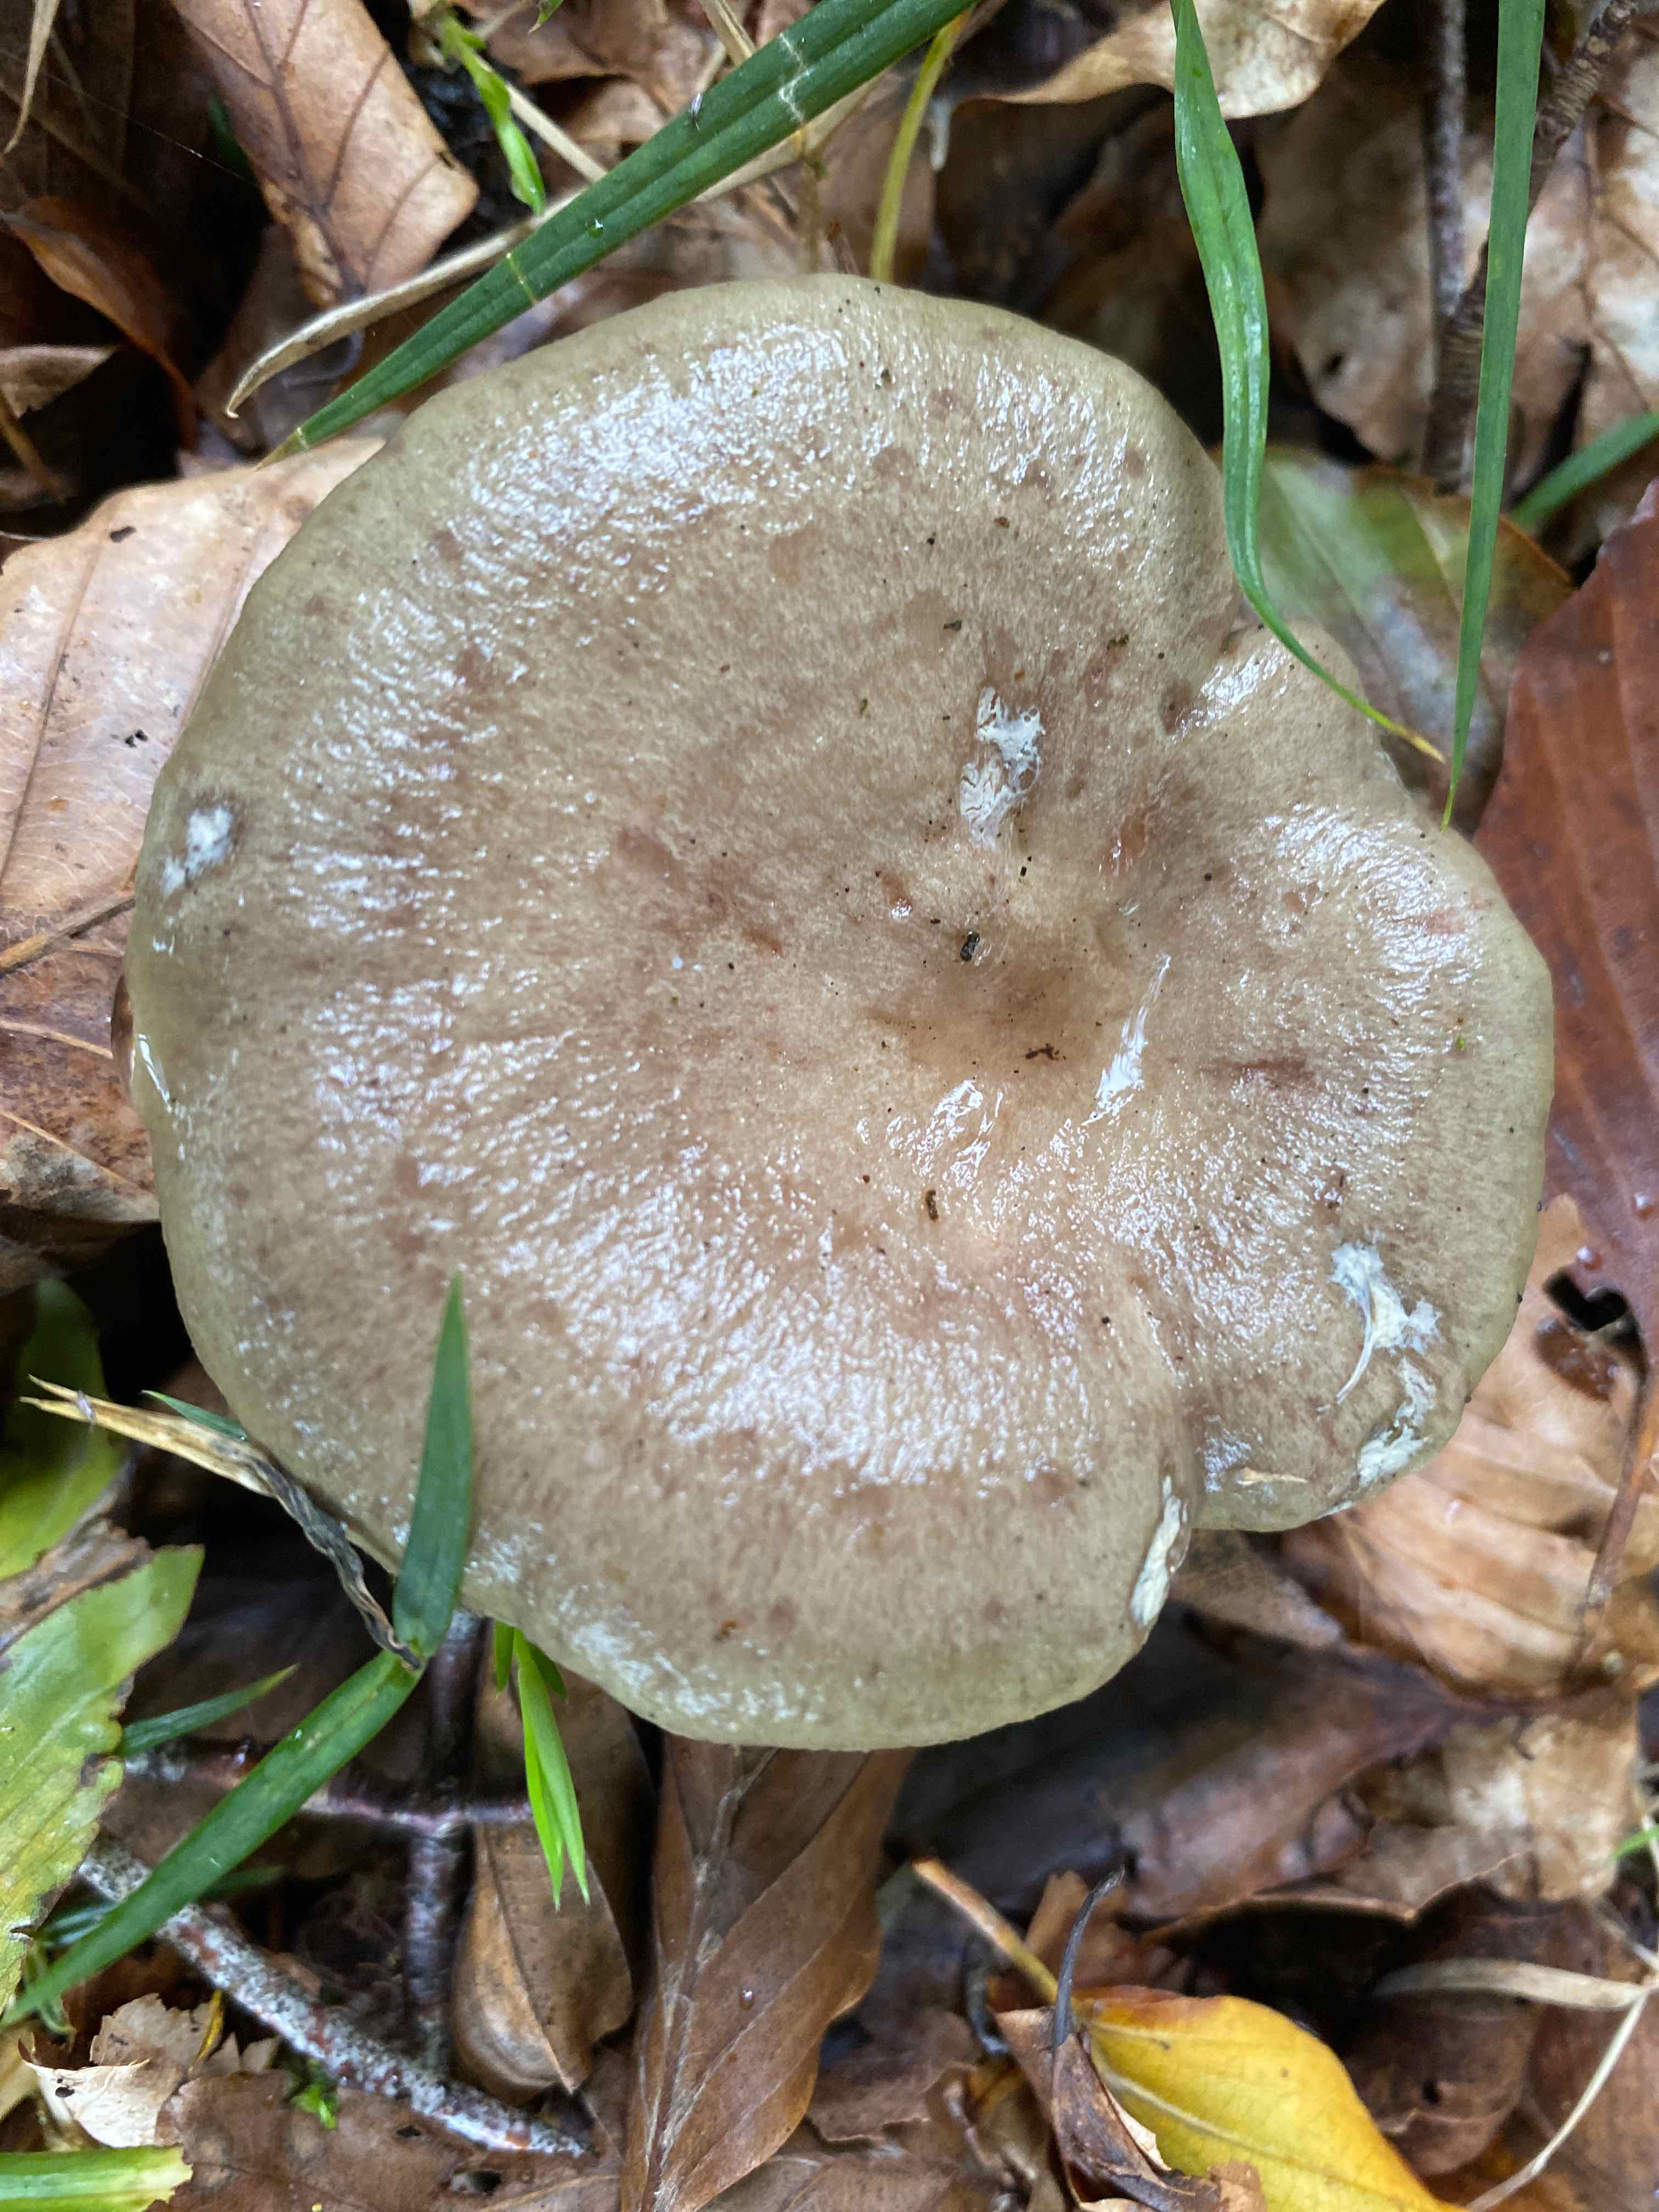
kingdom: Fungi
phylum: Basidiomycota
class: Agaricomycetes
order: Russulales
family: Russulaceae
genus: Lactarius
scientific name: Lactarius blennius
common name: dråbeplettet mælkehat
